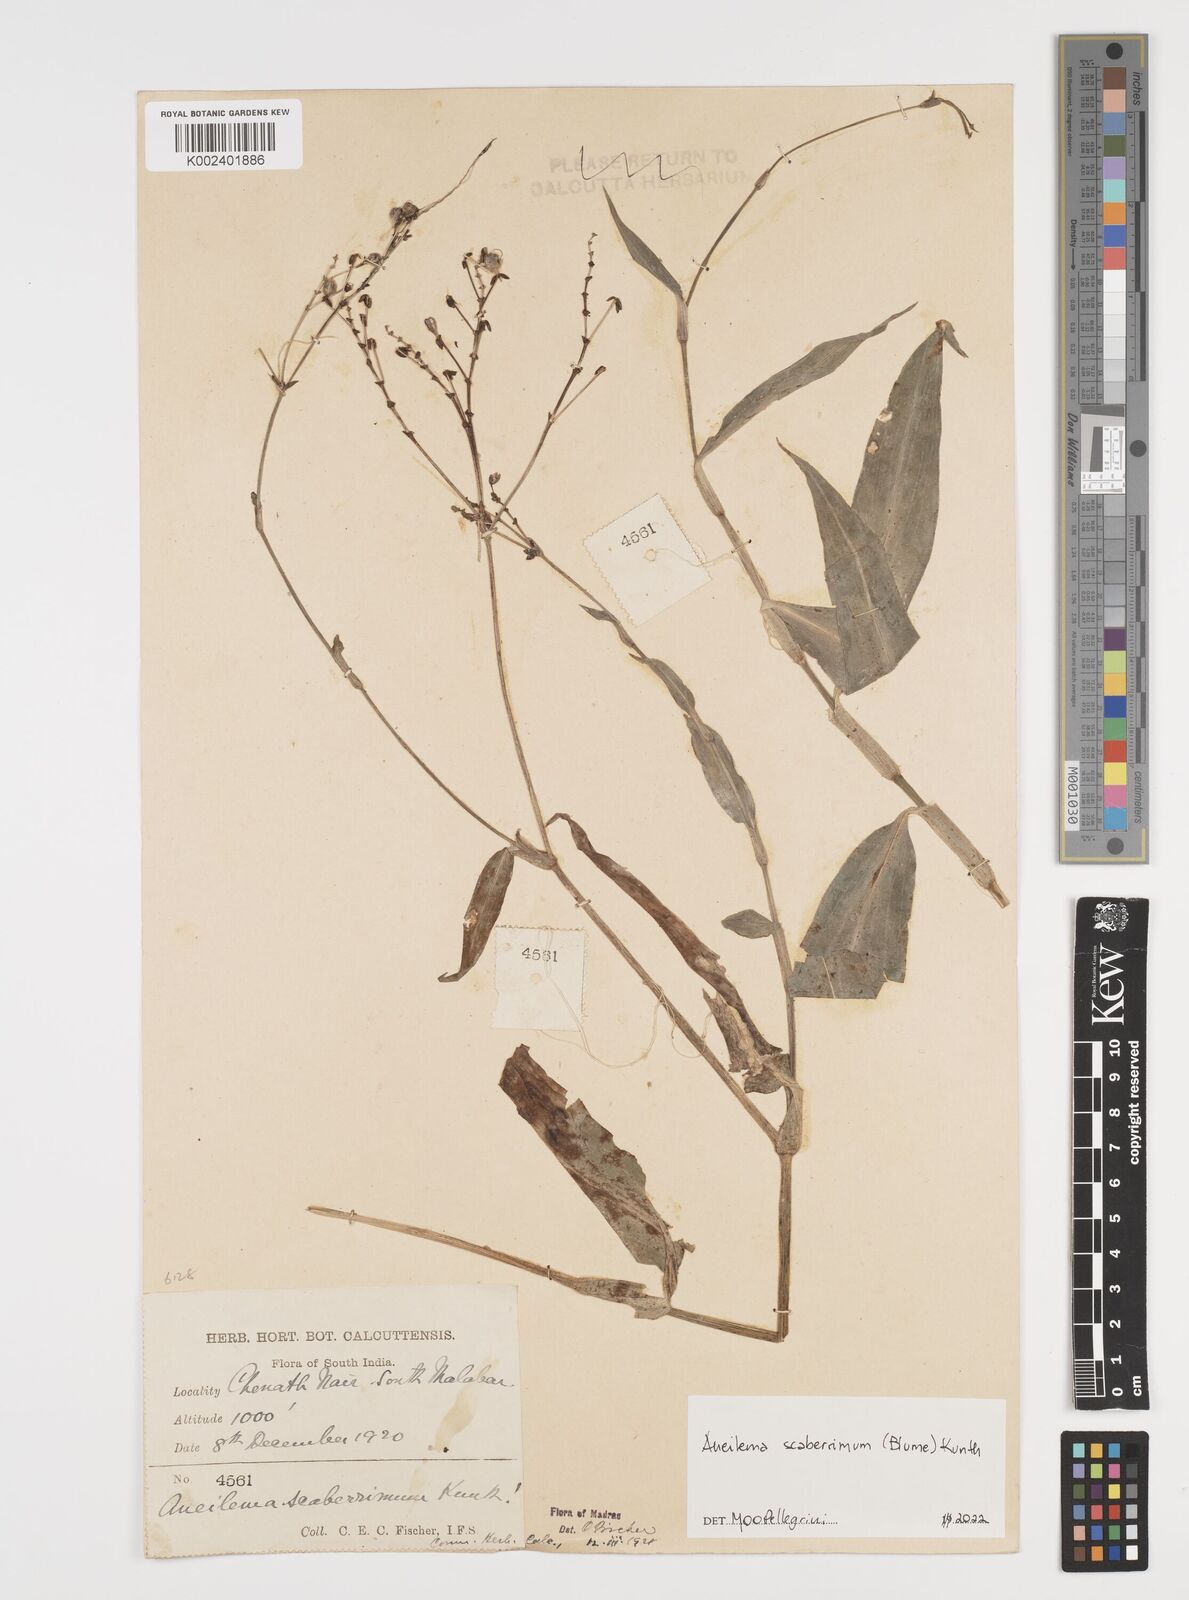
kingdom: Plantae
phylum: Tracheophyta
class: Liliopsida
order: Commelinales
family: Commelinaceae
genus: Rhopalephora
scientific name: Rhopalephora scaberrima
